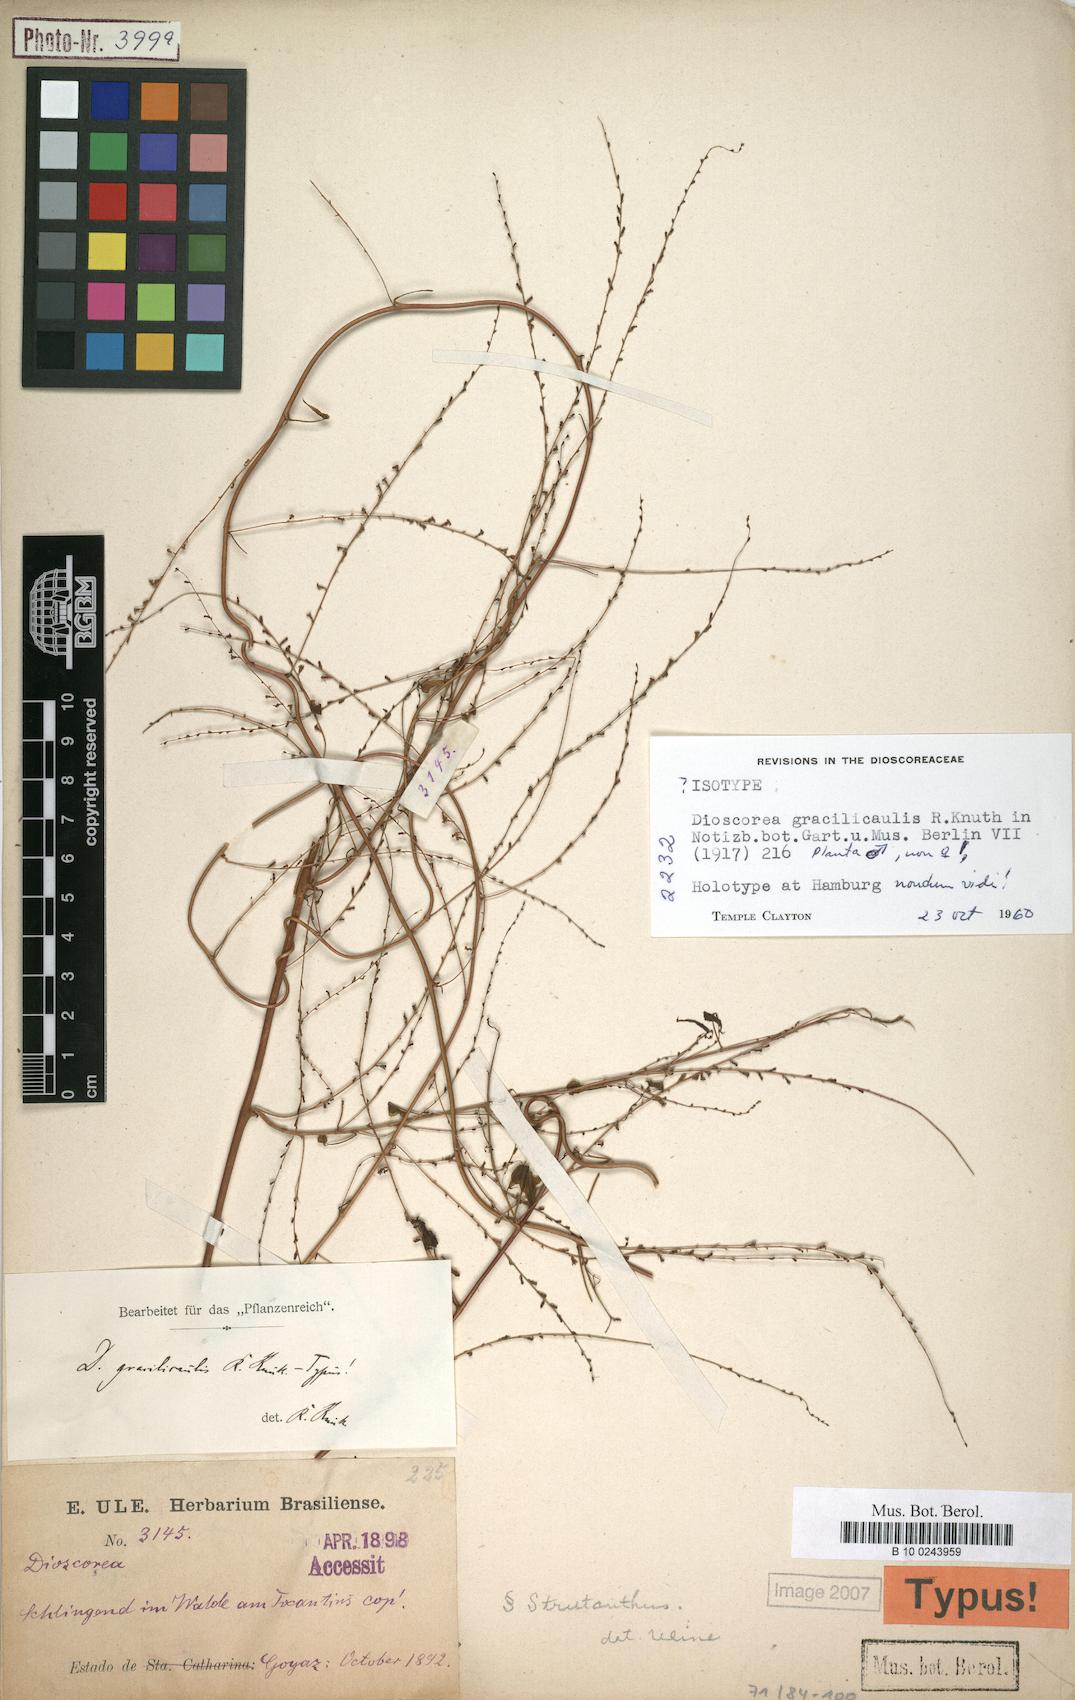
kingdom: Plantae
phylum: Tracheophyta
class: Liliopsida
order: Dioscoreales
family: Dioscoreaceae
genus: Dioscorea
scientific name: Dioscorea gracilicaulis
